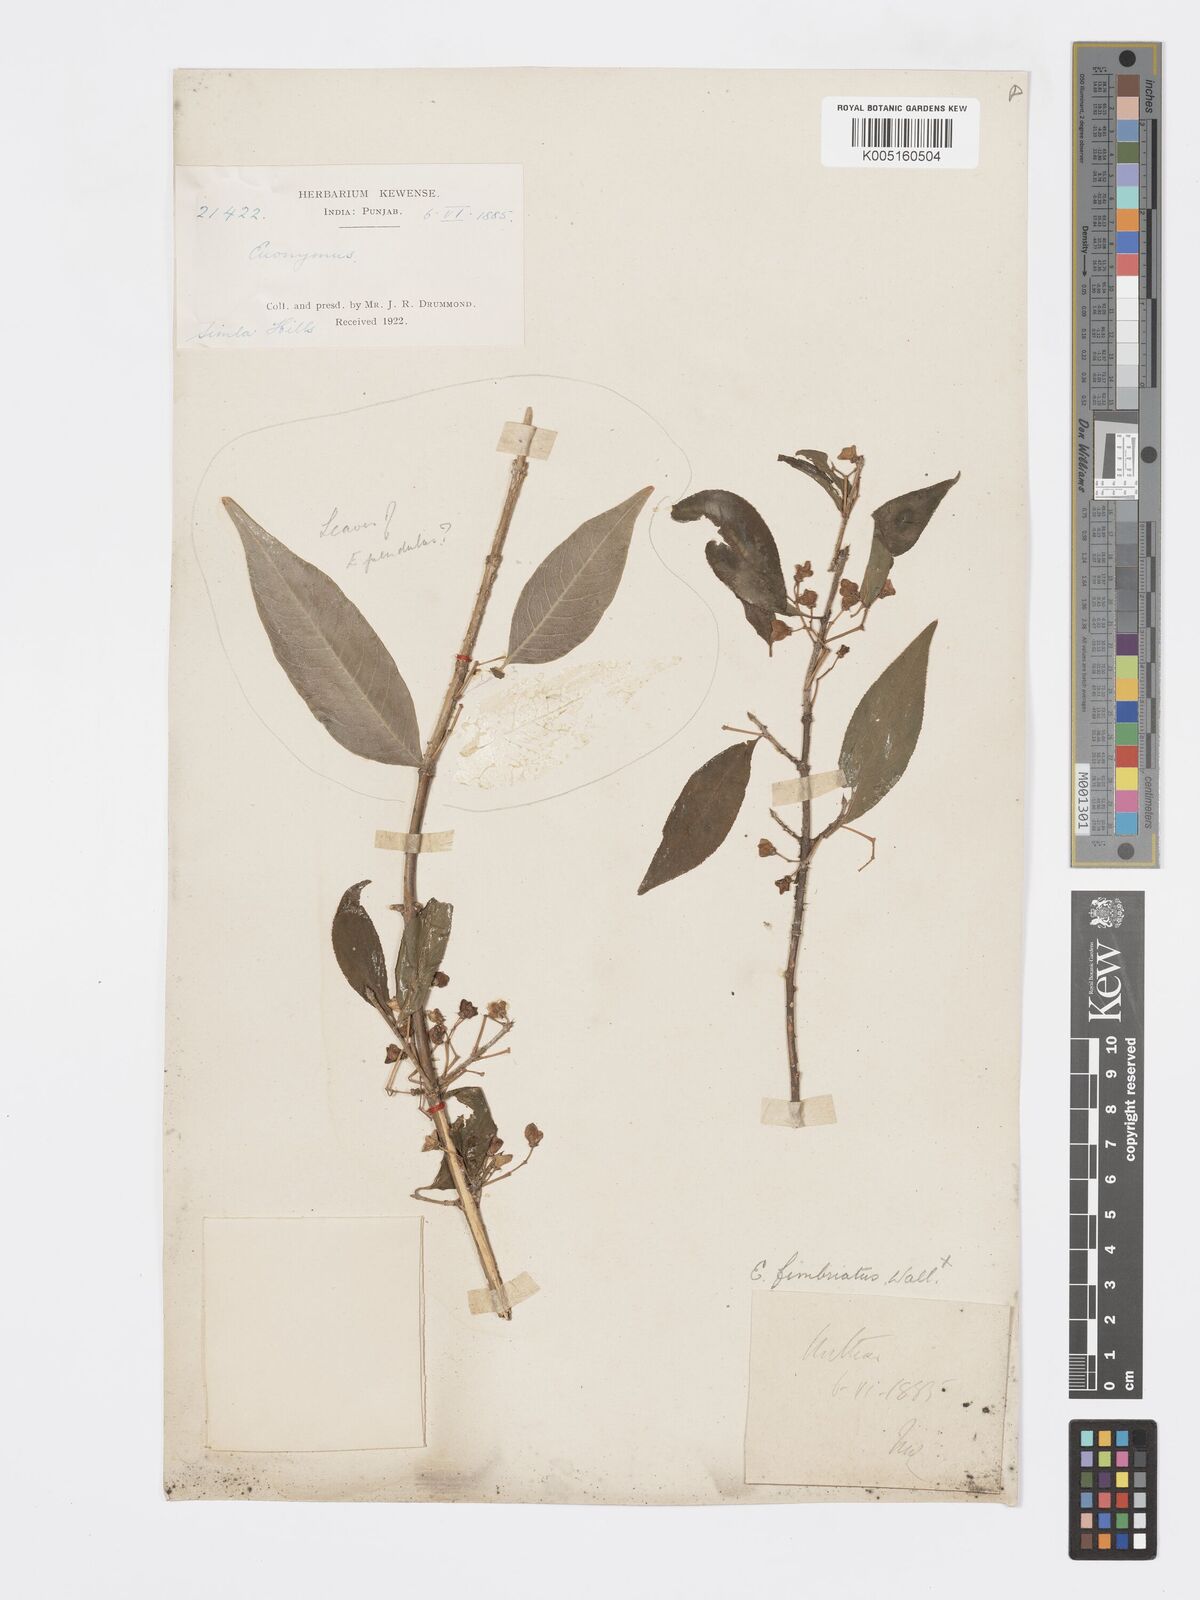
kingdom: Plantae
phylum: Tracheophyta
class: Magnoliopsida
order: Celastrales
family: Celastraceae
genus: Euonymus
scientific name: Euonymus
